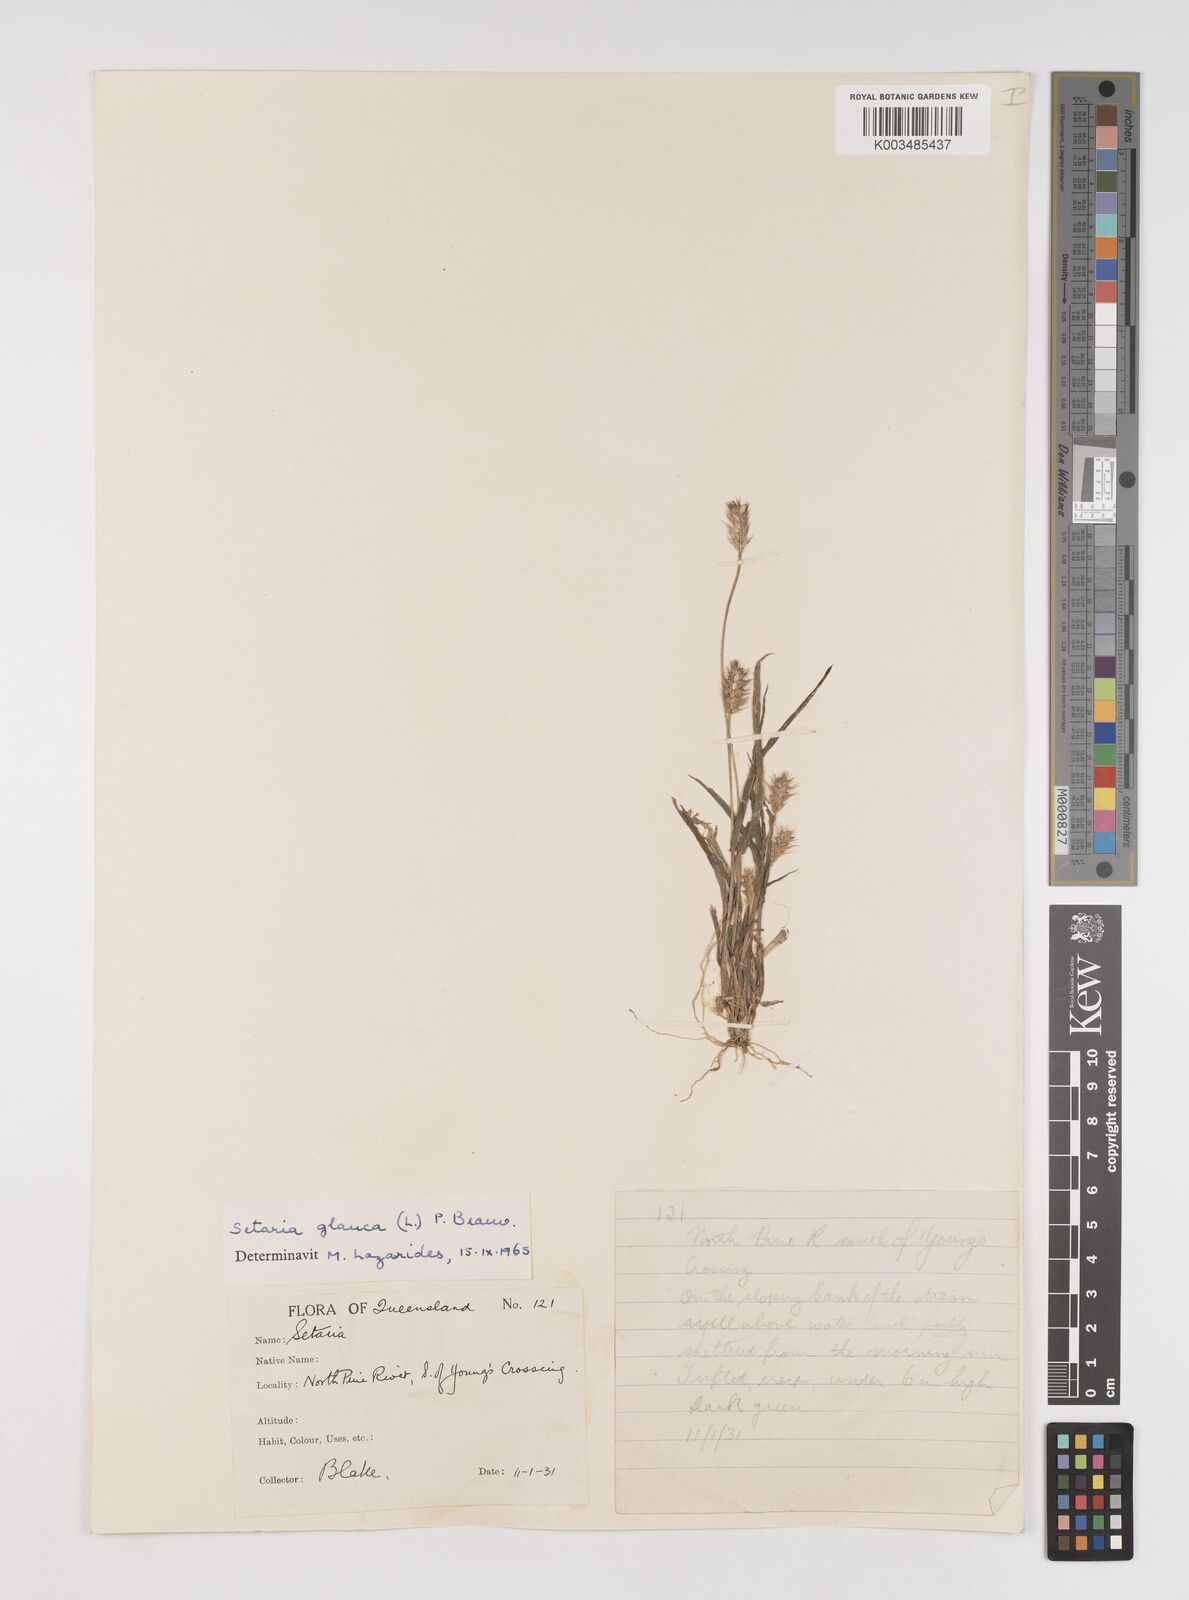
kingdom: Plantae
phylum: Tracheophyta
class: Liliopsida
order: Poales
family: Poaceae
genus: Setaria
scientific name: Setaria pumila
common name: Yellow bristle-grass
